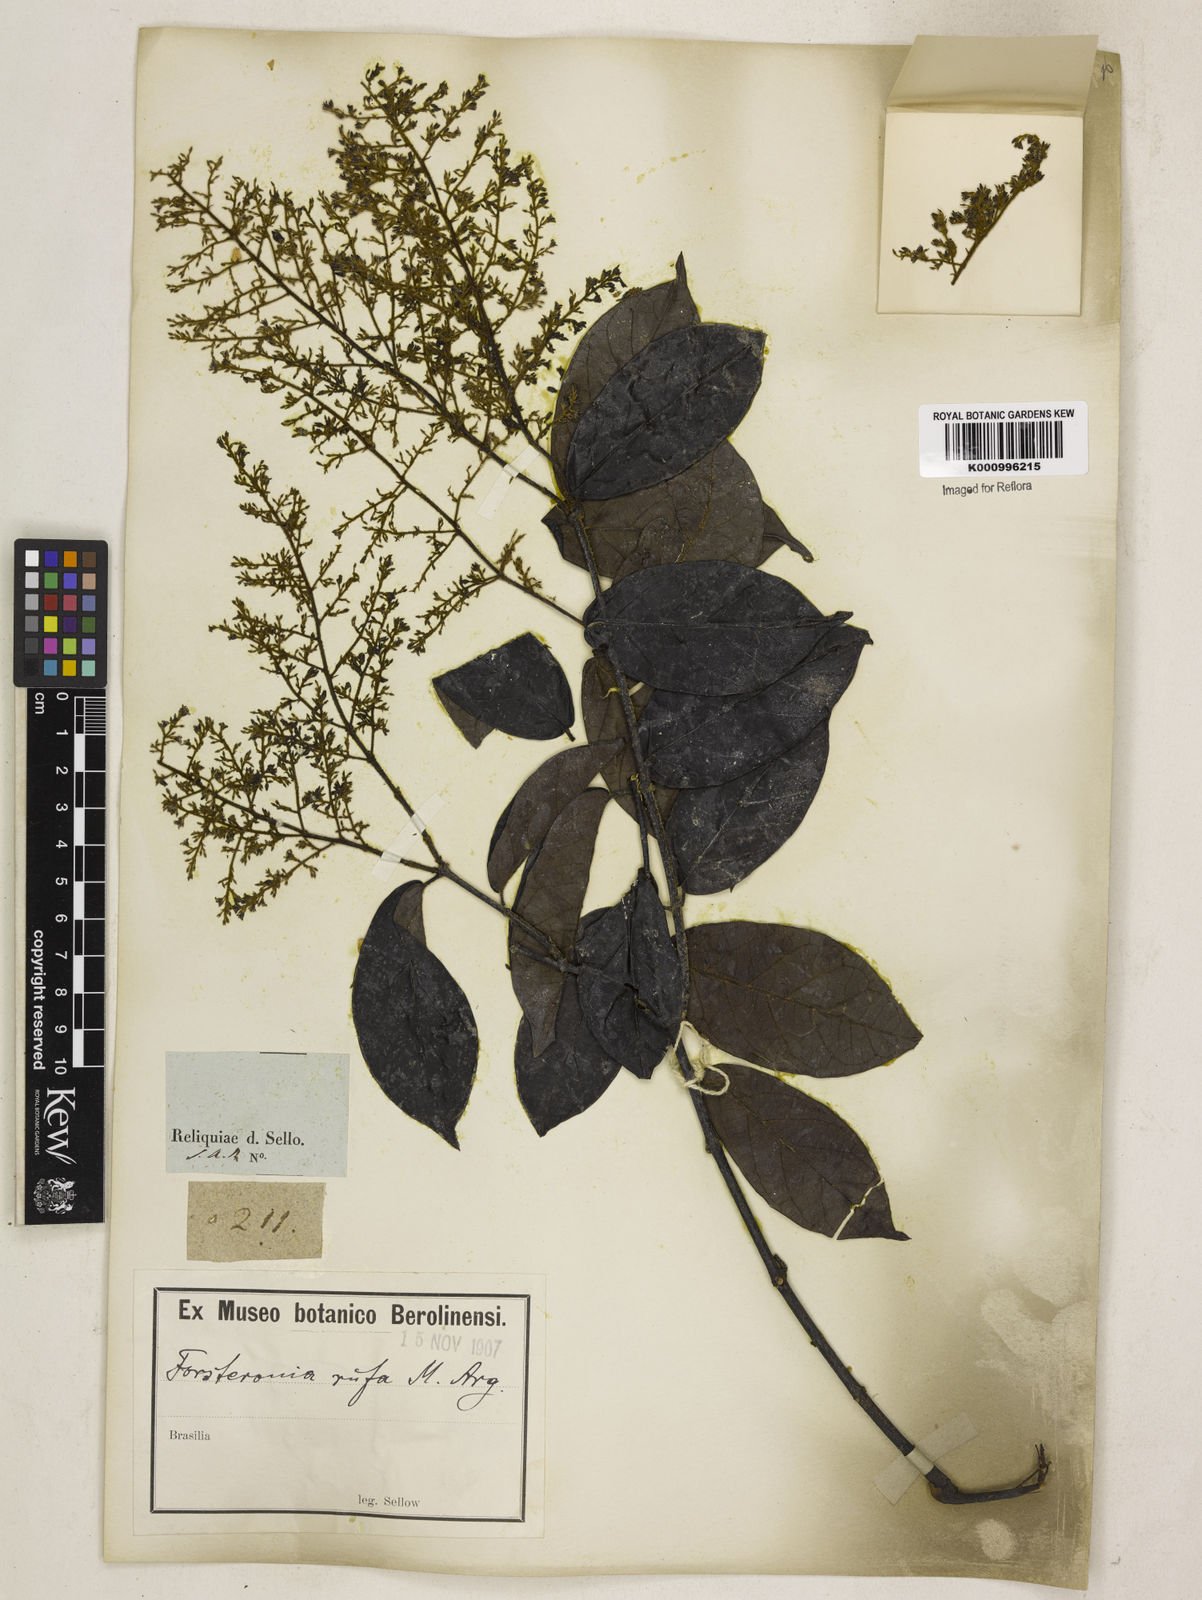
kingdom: Plantae
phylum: Tracheophyta
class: Magnoliopsida
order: Gentianales
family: Apocynaceae
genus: Forsteronia
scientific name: Forsteronia
